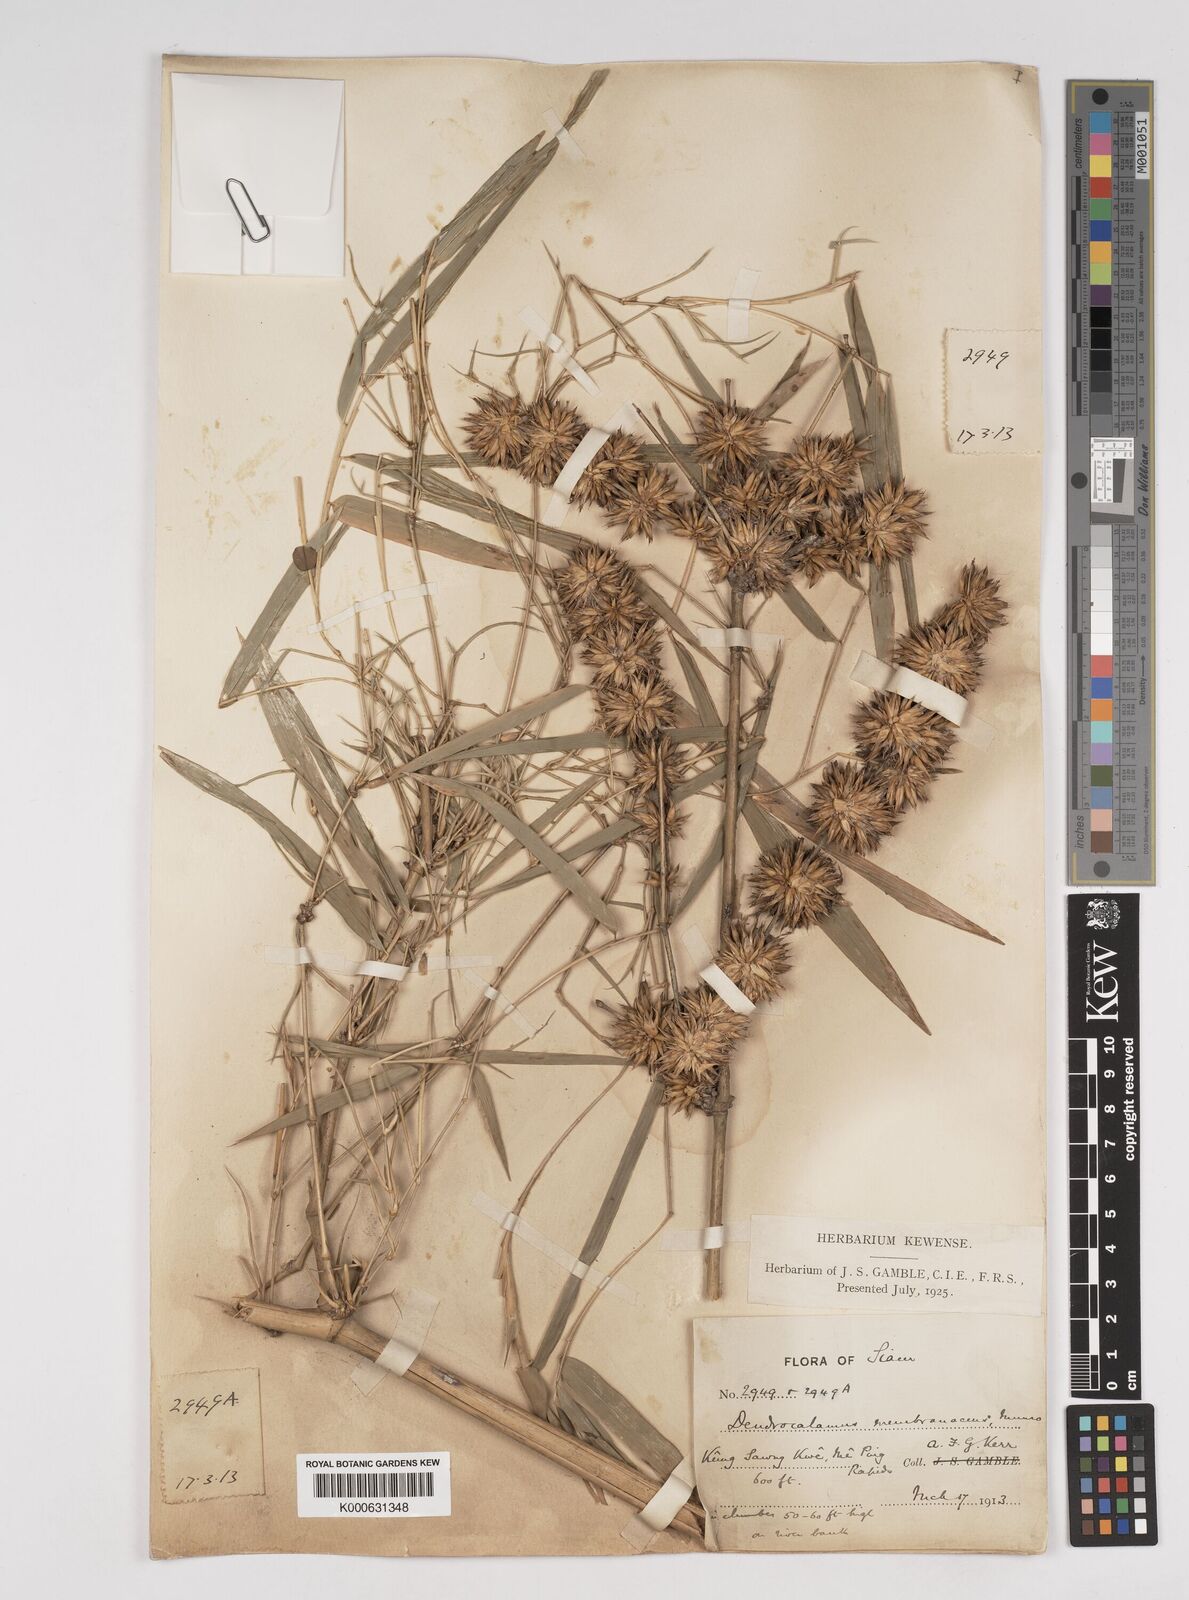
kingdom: Plantae
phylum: Tracheophyta
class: Liliopsida
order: Poales
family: Poaceae
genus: Dendrocalamus
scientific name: Dendrocalamus membranaceus
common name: White bamboo
